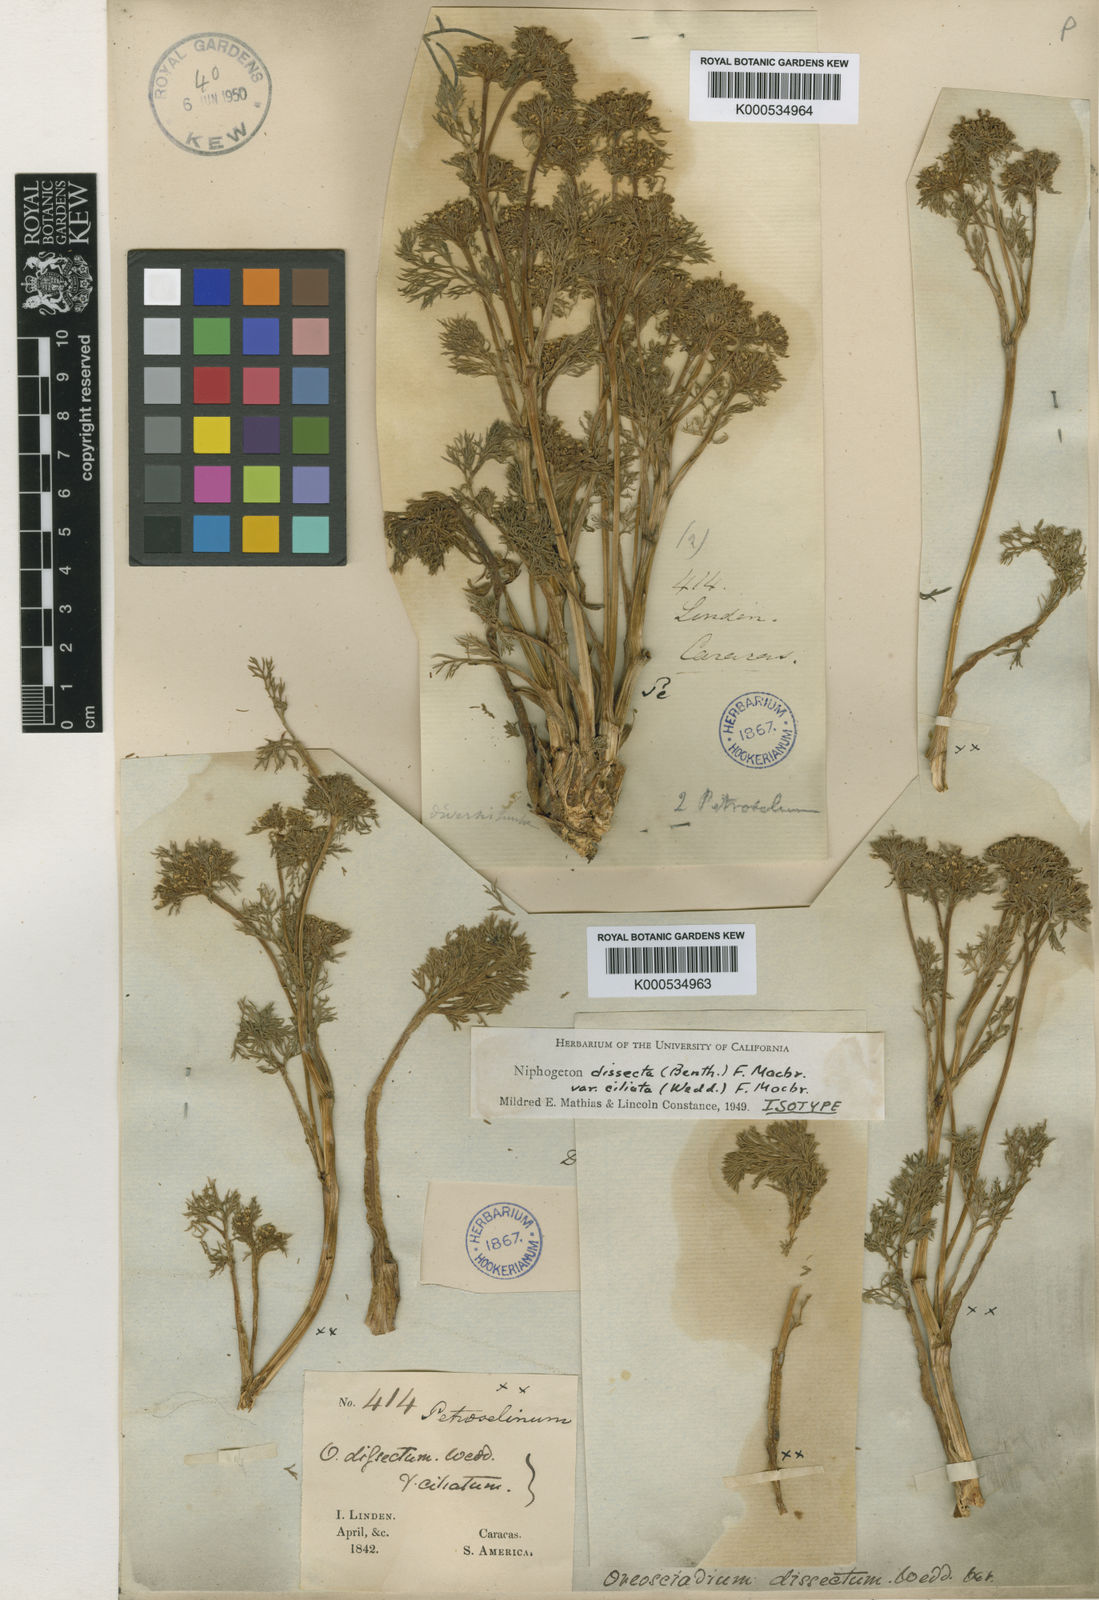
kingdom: Plantae
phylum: Tracheophyta
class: Magnoliopsida
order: Apiales
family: Apiaceae
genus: Niphogeton
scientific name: Niphogeton dissecta
